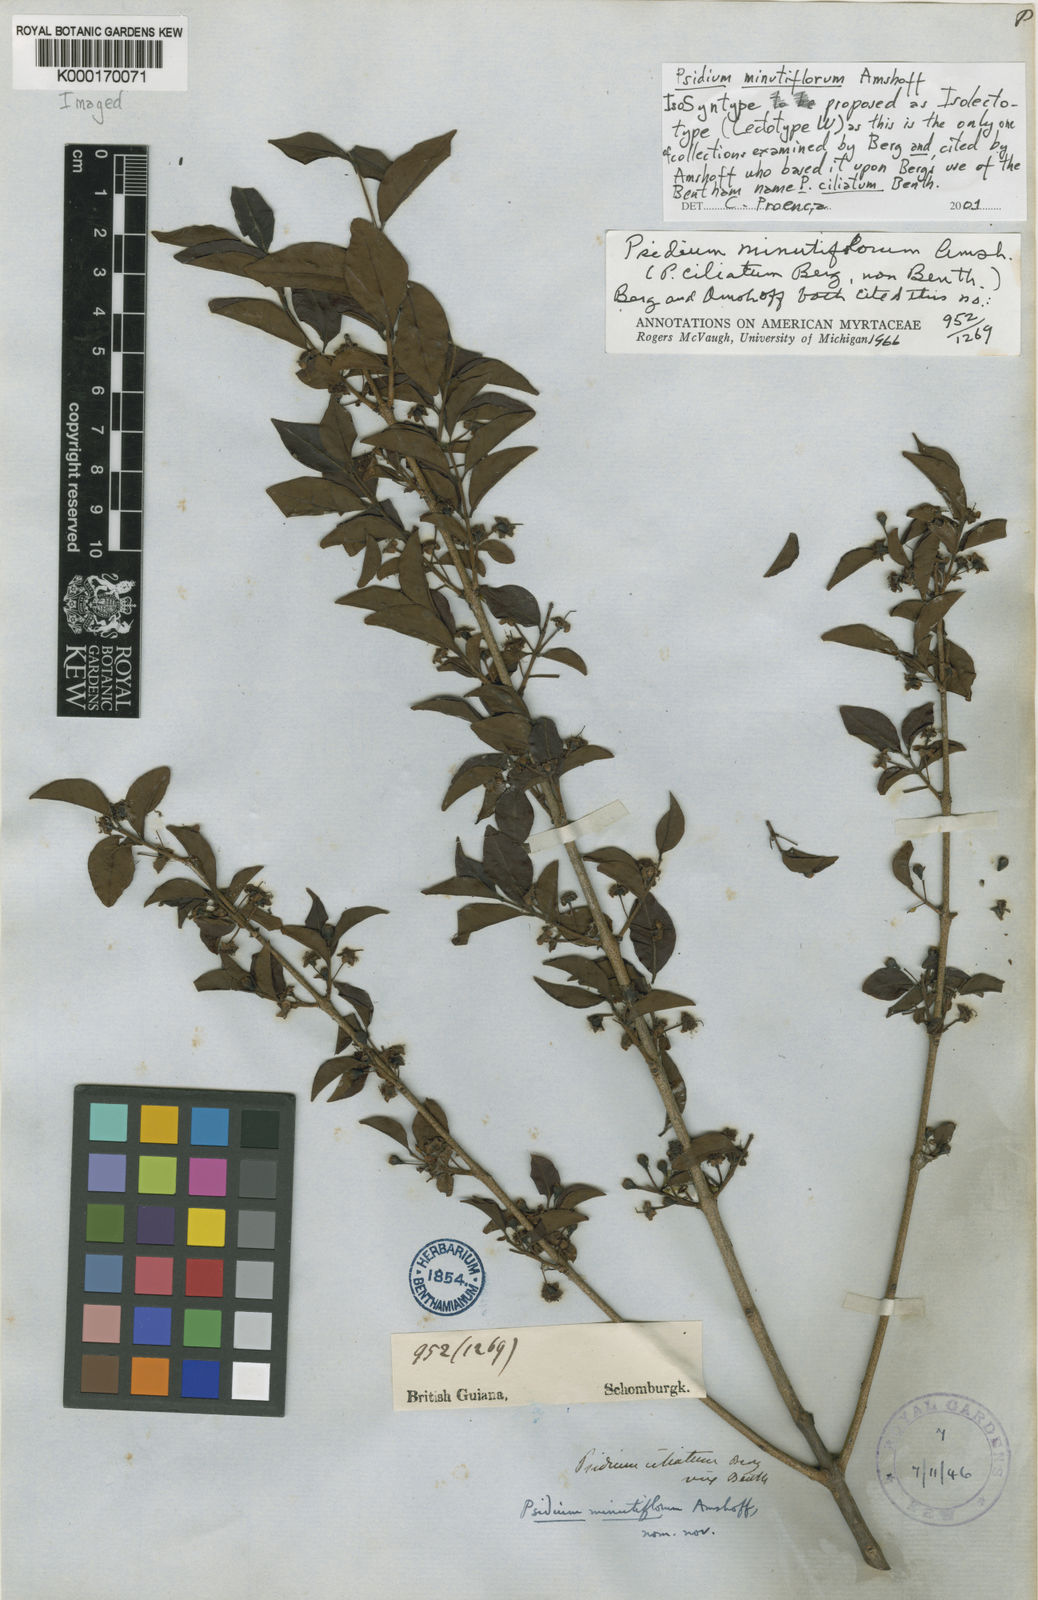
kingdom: Plantae
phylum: Tracheophyta
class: Magnoliopsida
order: Myrtales
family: Myrtaceae
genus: Psidium
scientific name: Psidium minutiflorum
